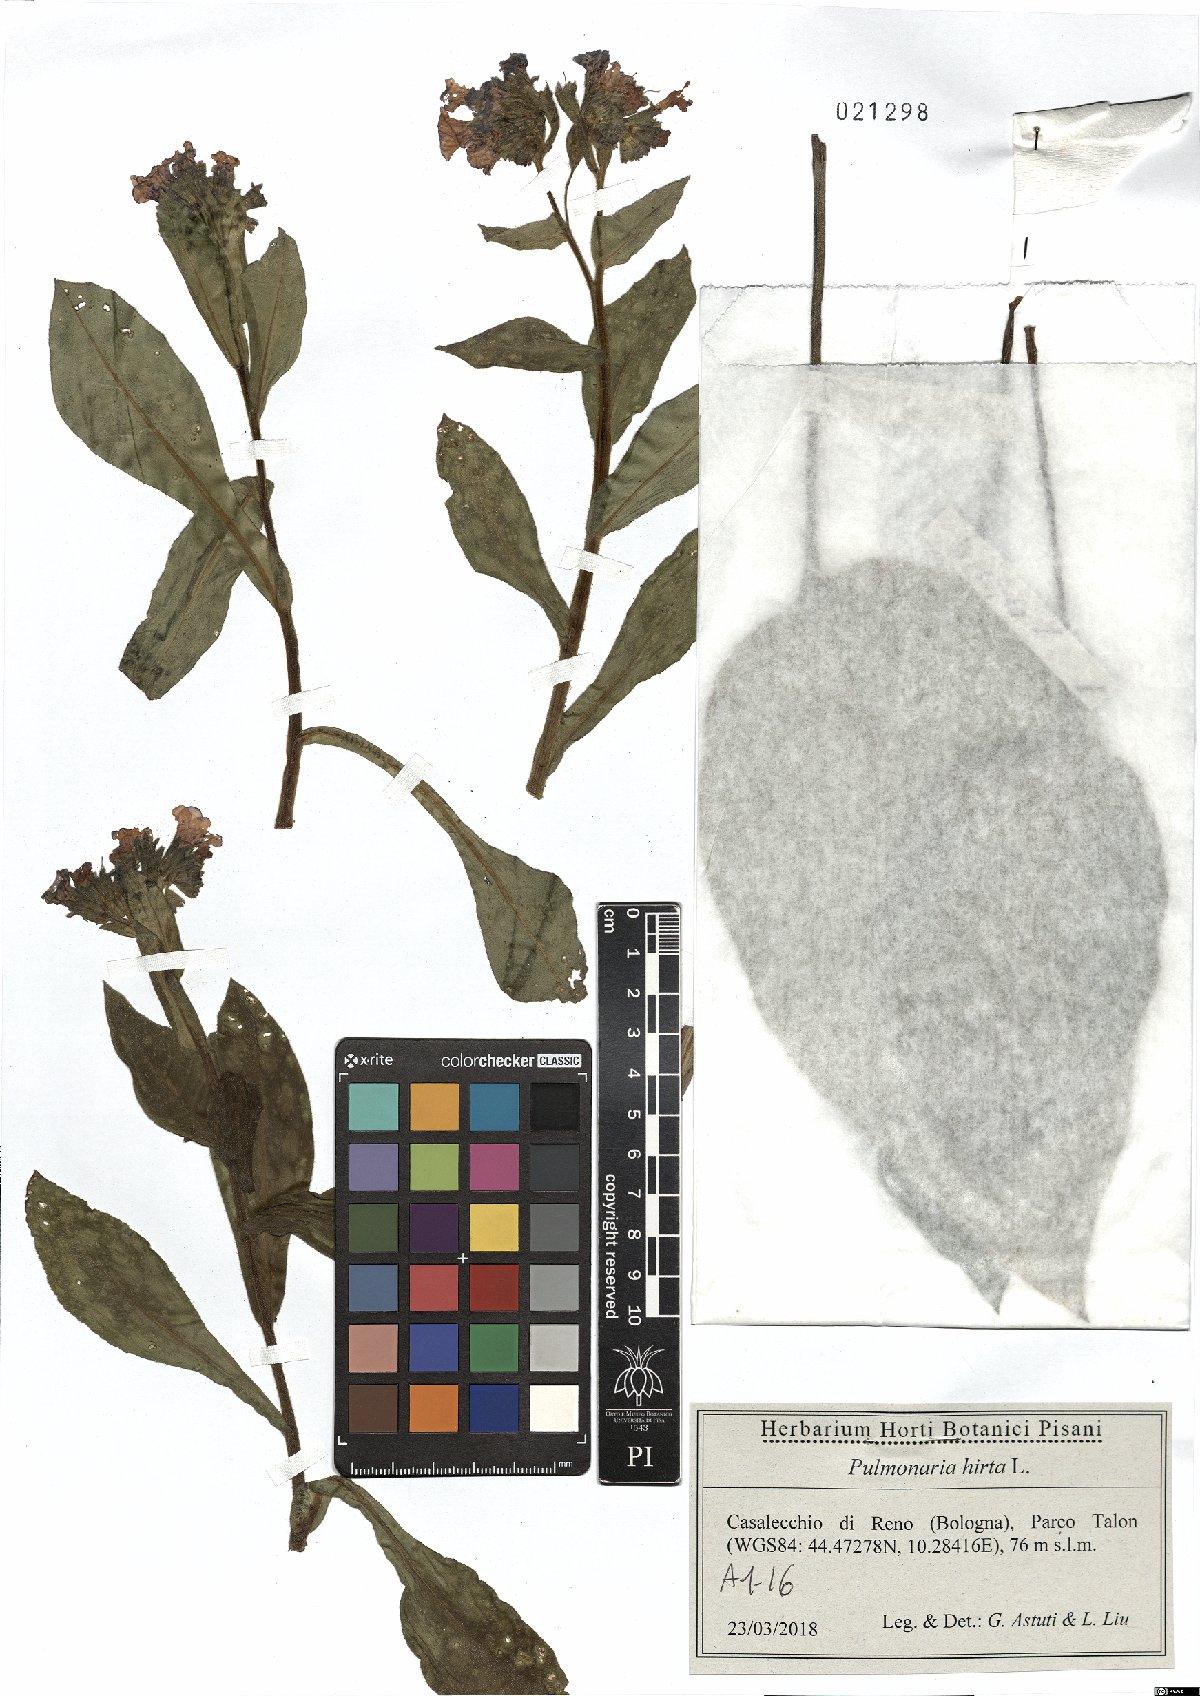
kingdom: Plantae
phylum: Tracheophyta
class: Magnoliopsida
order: Boraginales
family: Boraginaceae
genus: Pulmonaria
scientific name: Pulmonaria hirta
